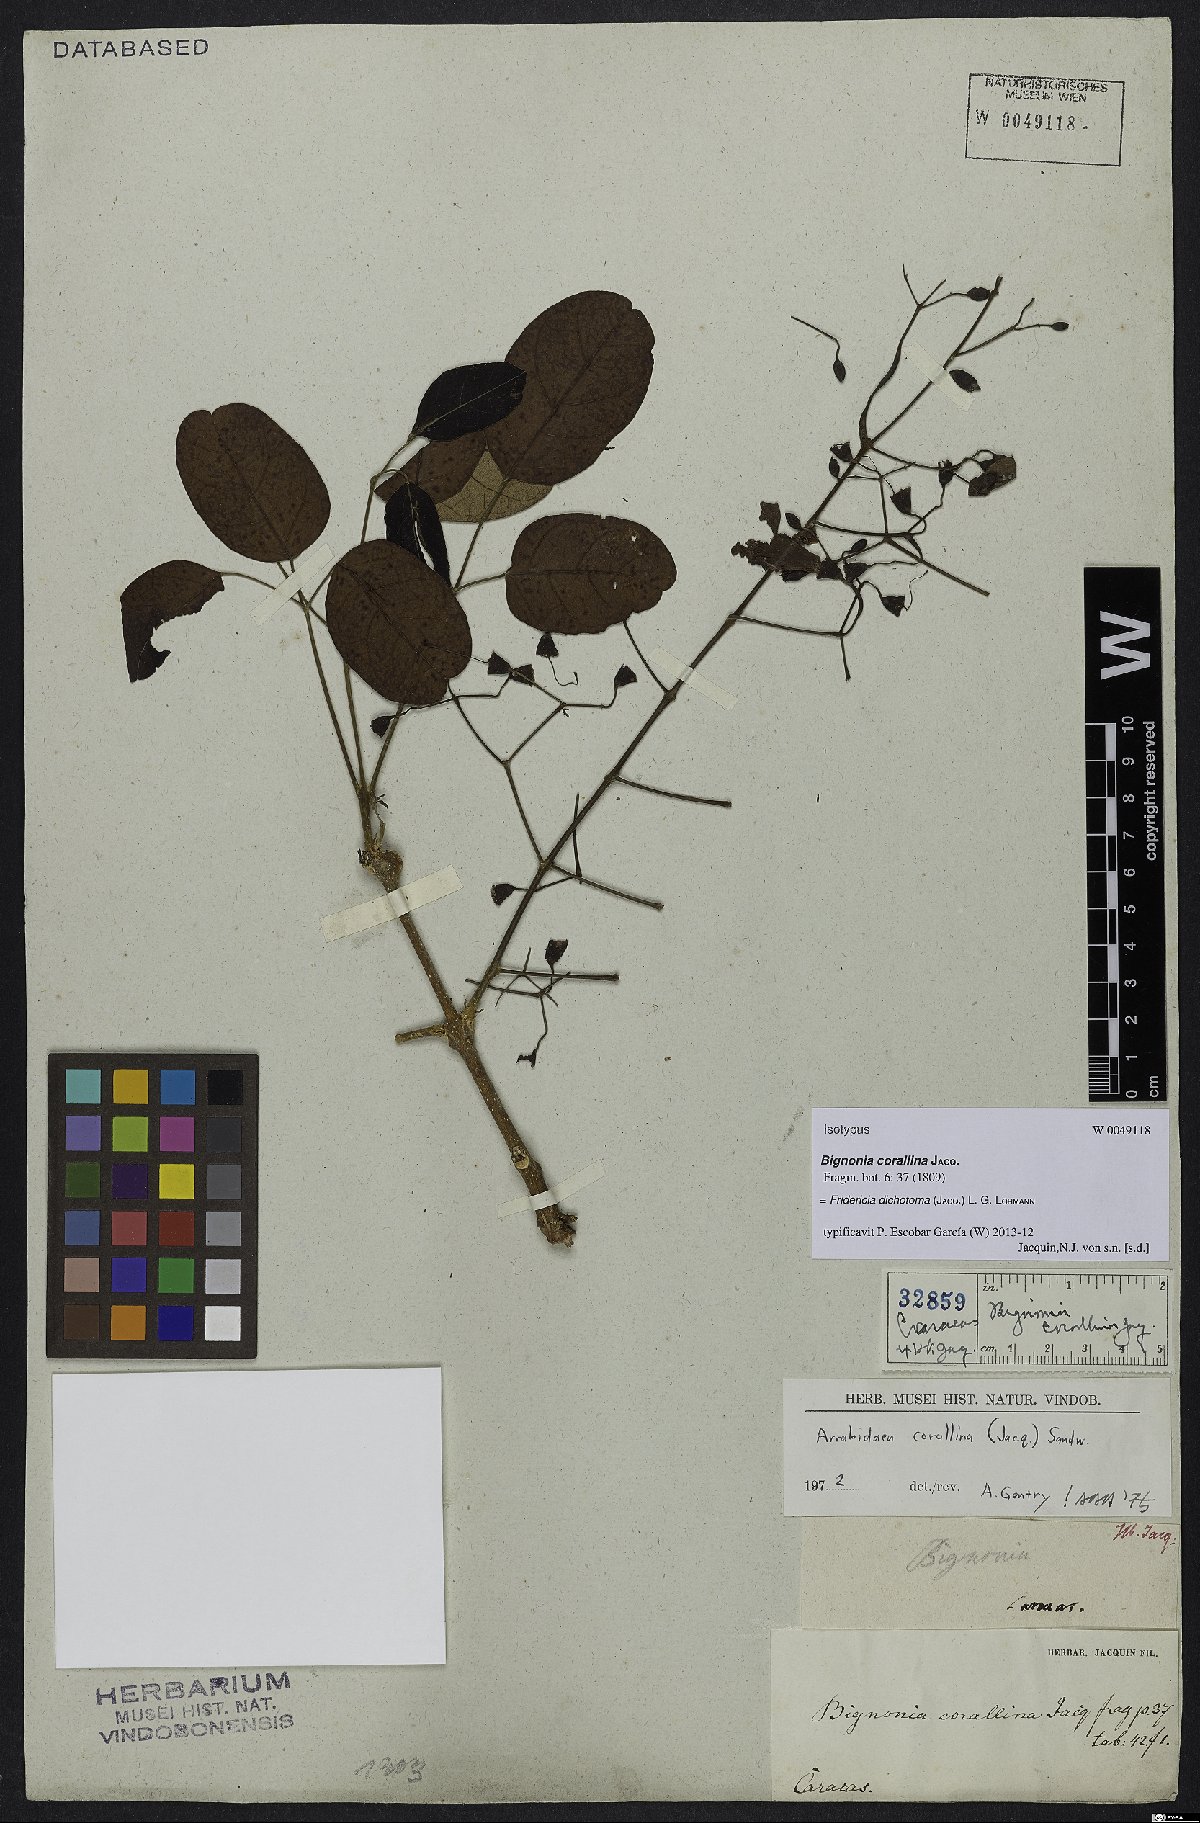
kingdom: Plantae
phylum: Tracheophyta
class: Magnoliopsida
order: Lamiales
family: Bignoniaceae
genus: Tanaecium
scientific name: Tanaecium dichotomum
